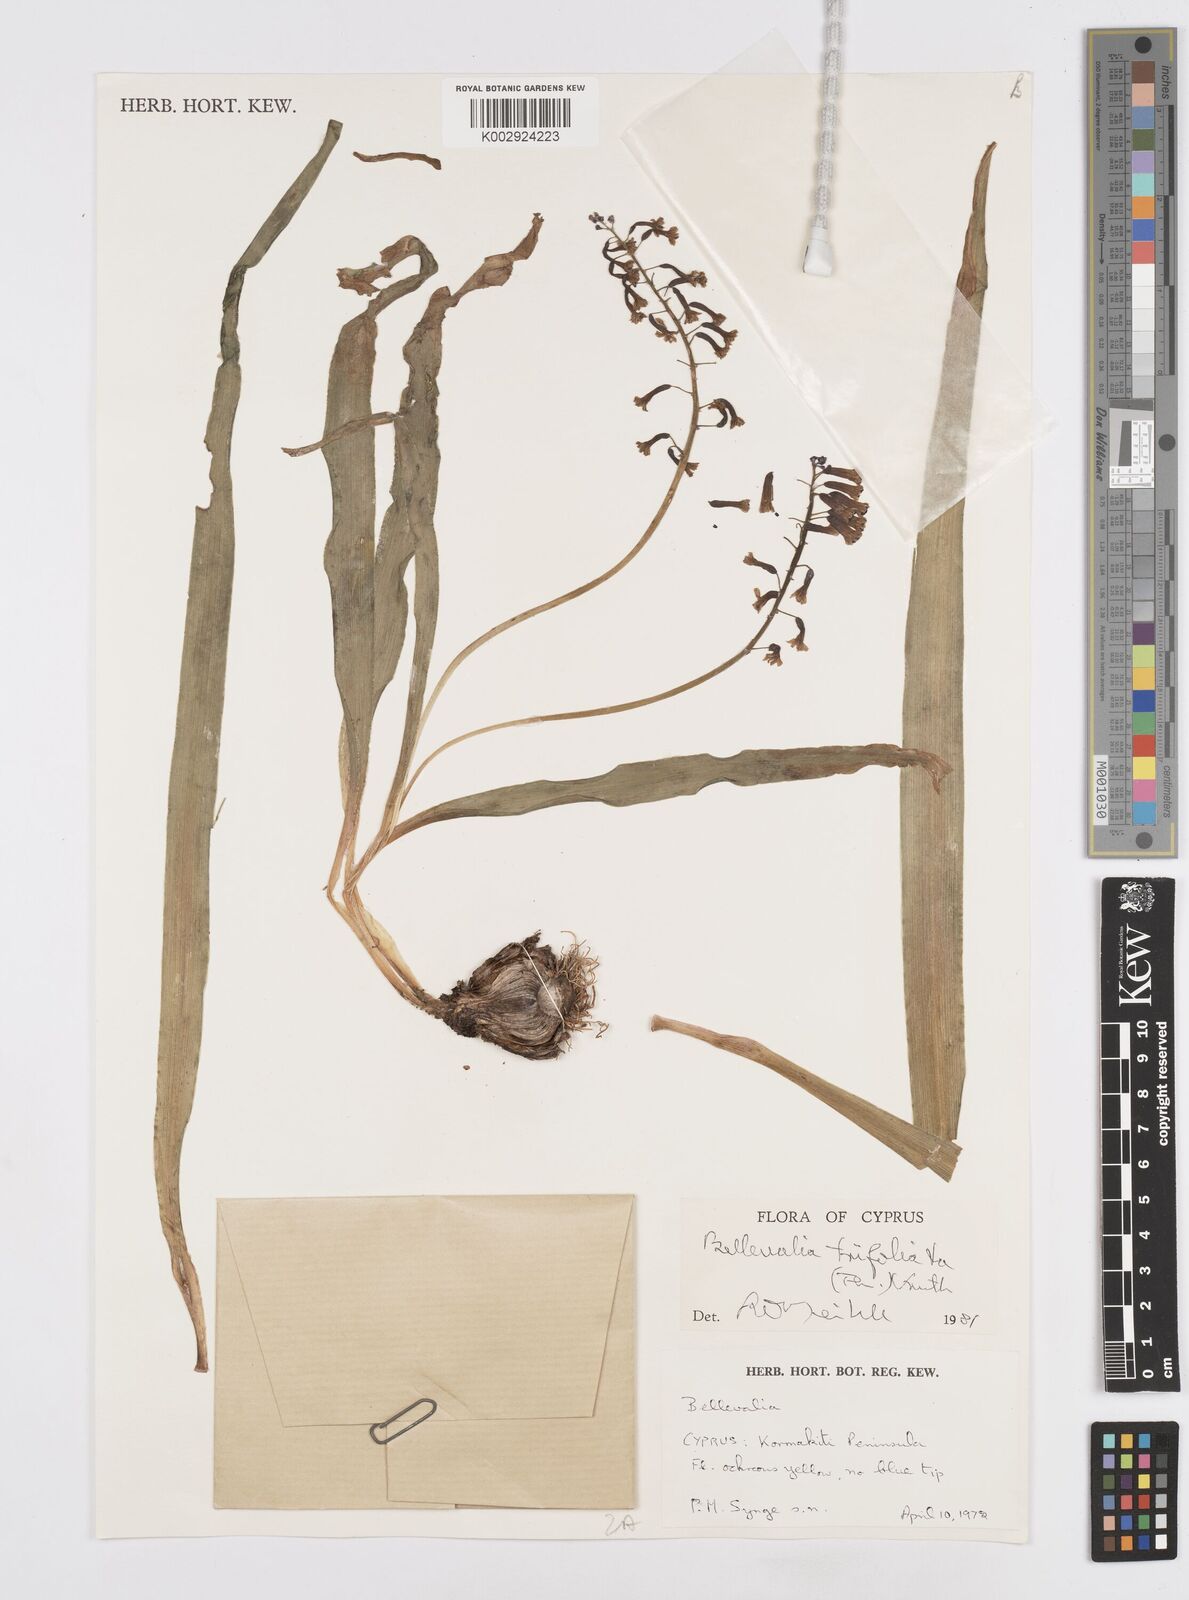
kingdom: Plantae
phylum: Tracheophyta
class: Liliopsida
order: Asparagales
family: Asparagaceae
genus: Bellevalia
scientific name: Bellevalia trifoliata
